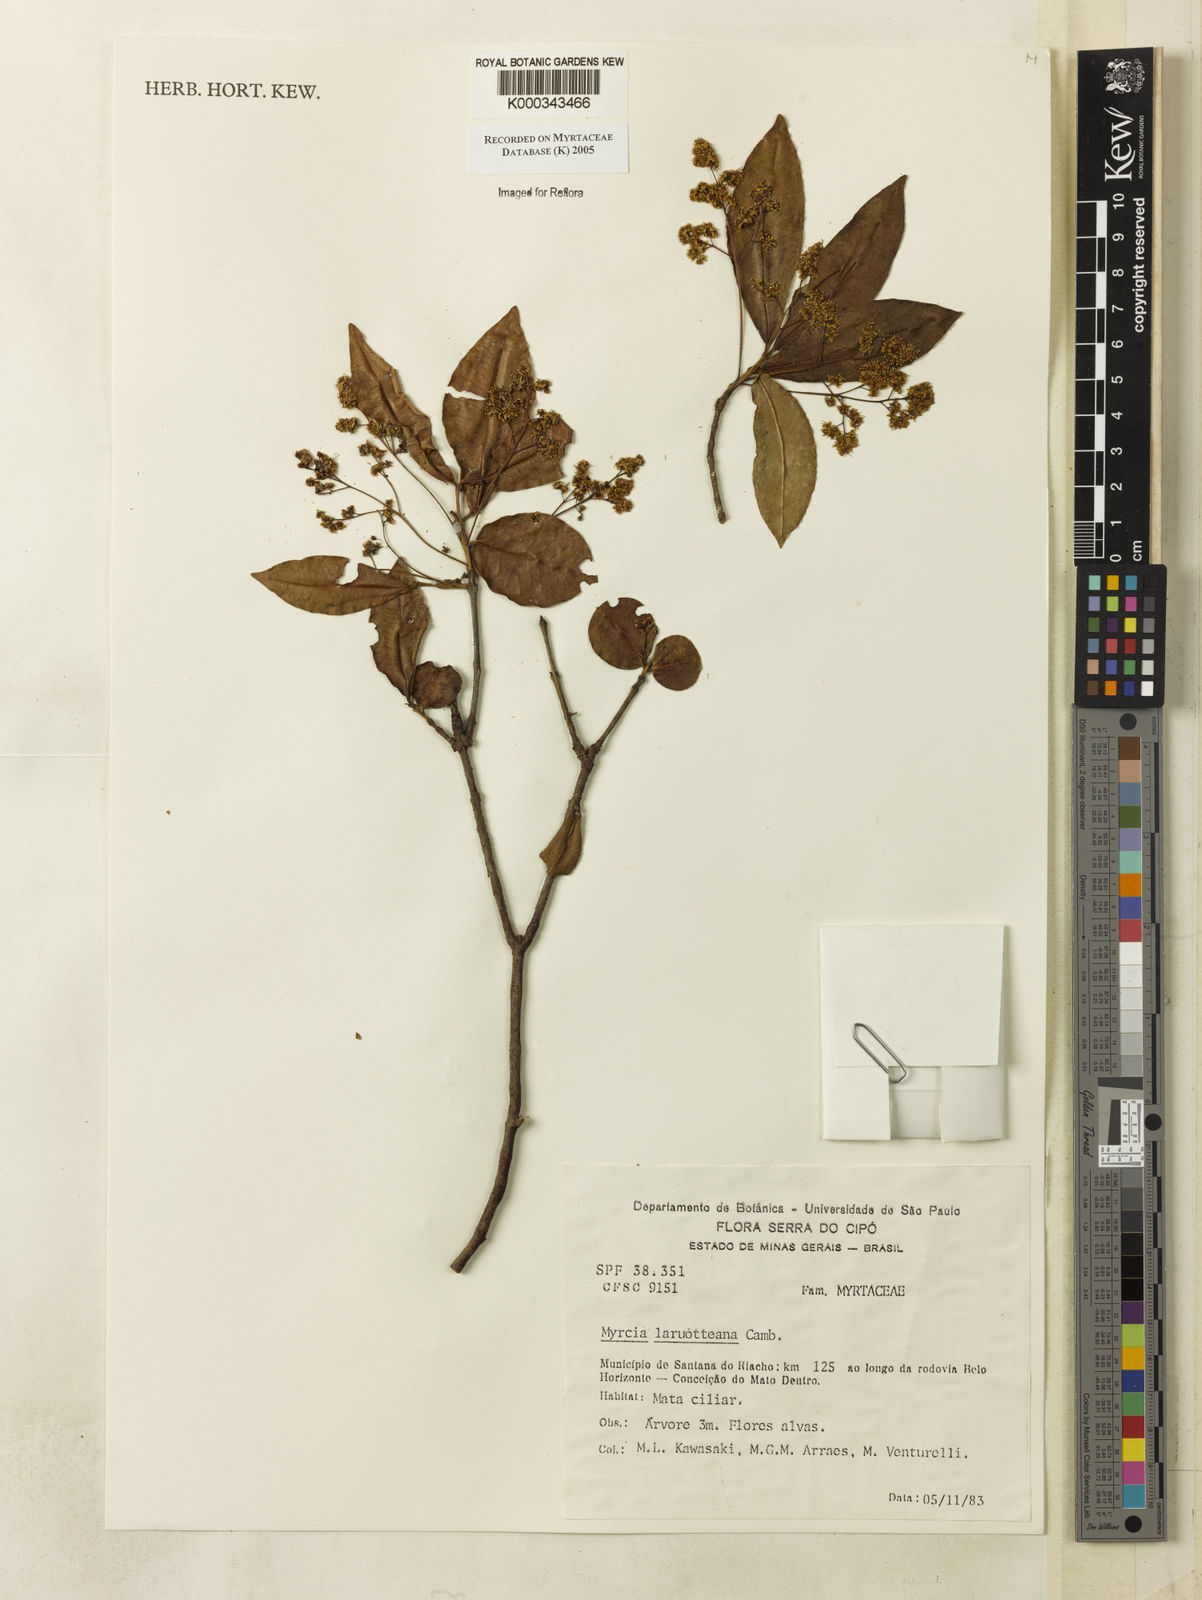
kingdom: Plantae
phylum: Tracheophyta
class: Magnoliopsida
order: Myrtales
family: Myrtaceae
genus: Myrcia
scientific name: Myrcia laruotteana
